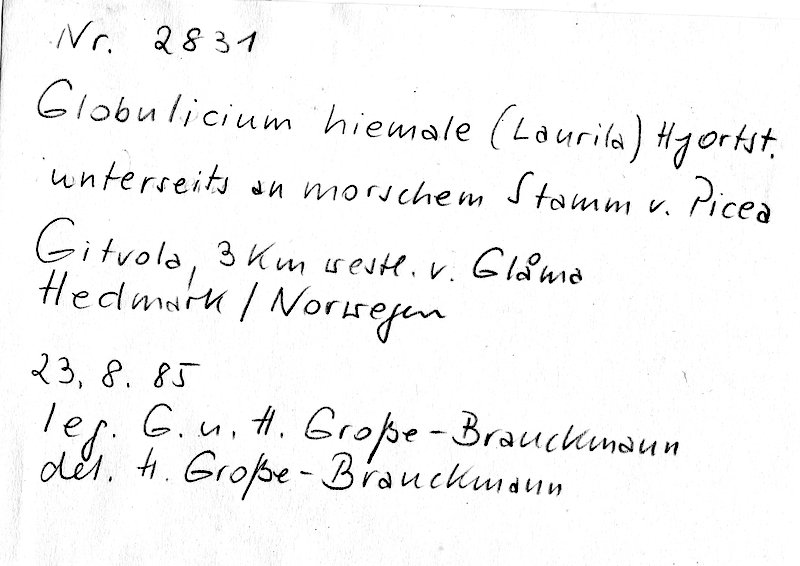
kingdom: Plantae
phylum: Tracheophyta
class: Pinopsida
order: Pinales
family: Pinaceae
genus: Picea
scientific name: Picea
